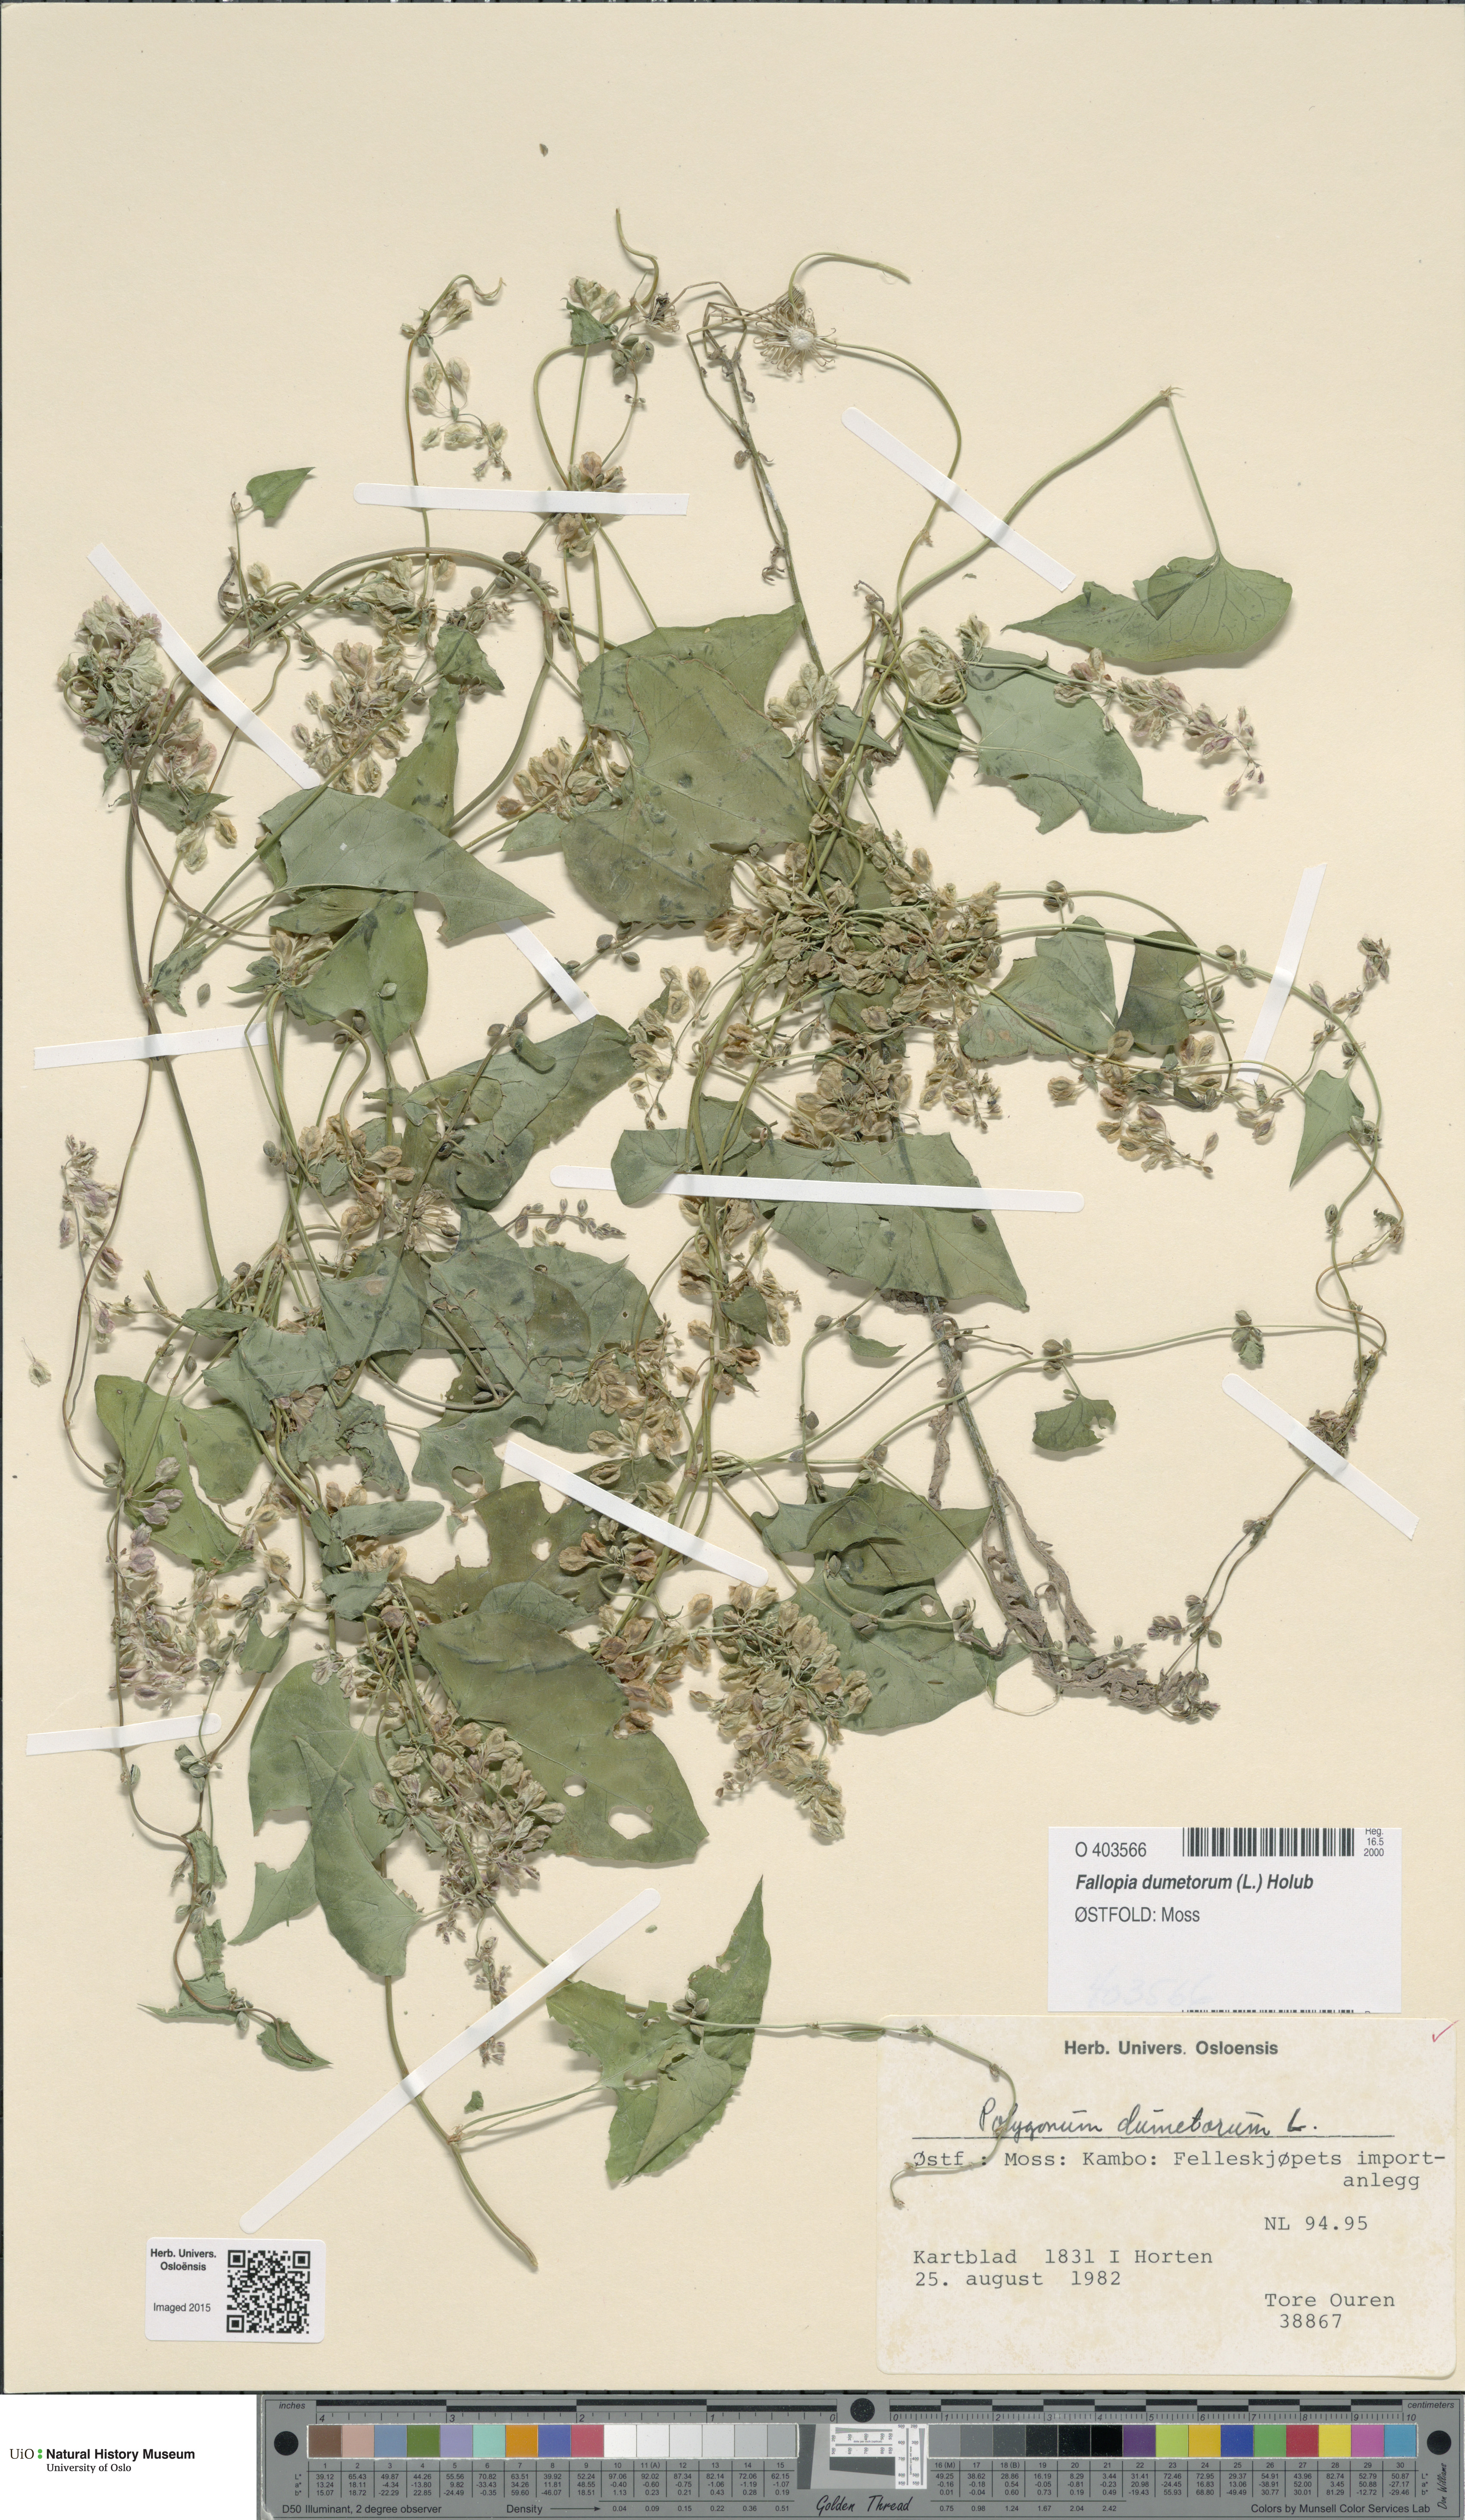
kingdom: Plantae
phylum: Tracheophyta
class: Magnoliopsida
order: Caryophyllales
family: Polygonaceae
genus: Fallopia
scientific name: Fallopia dumetorum
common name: Copse-bindweed
